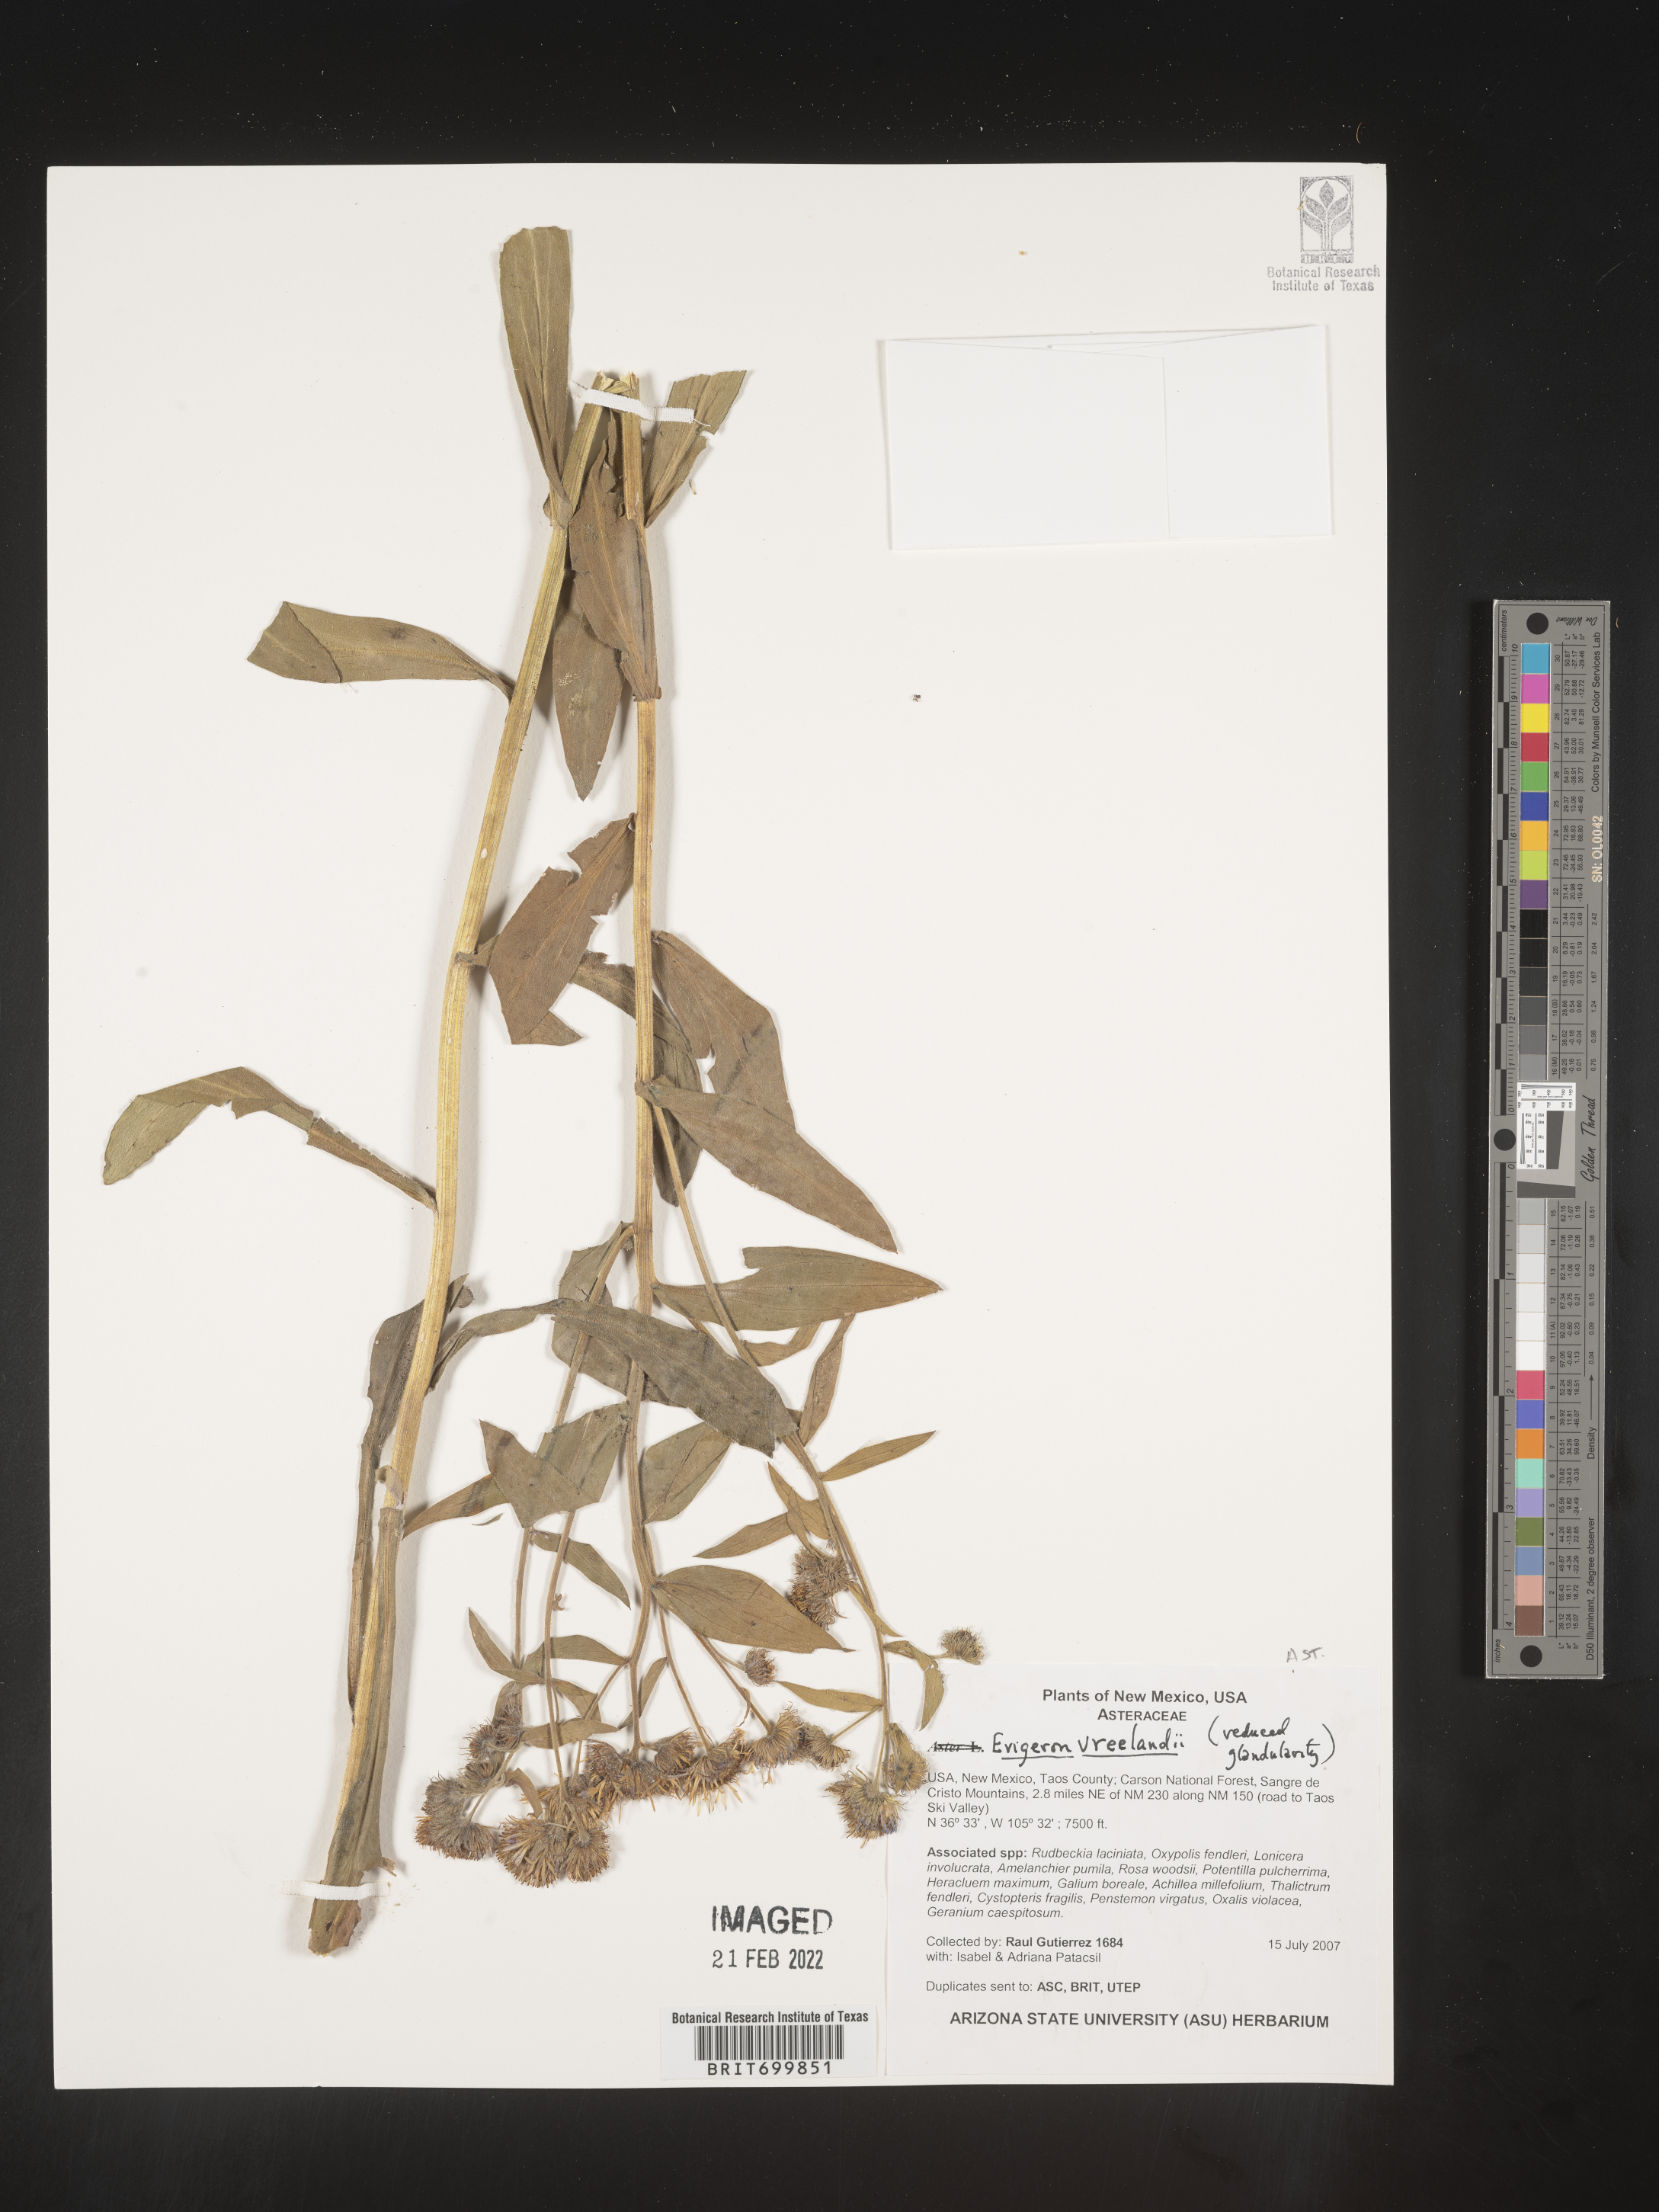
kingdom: Plantae
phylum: Tracheophyta
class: Magnoliopsida
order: Asterales
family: Asteraceae
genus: Erigeron
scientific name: Erigeron vreelandii
